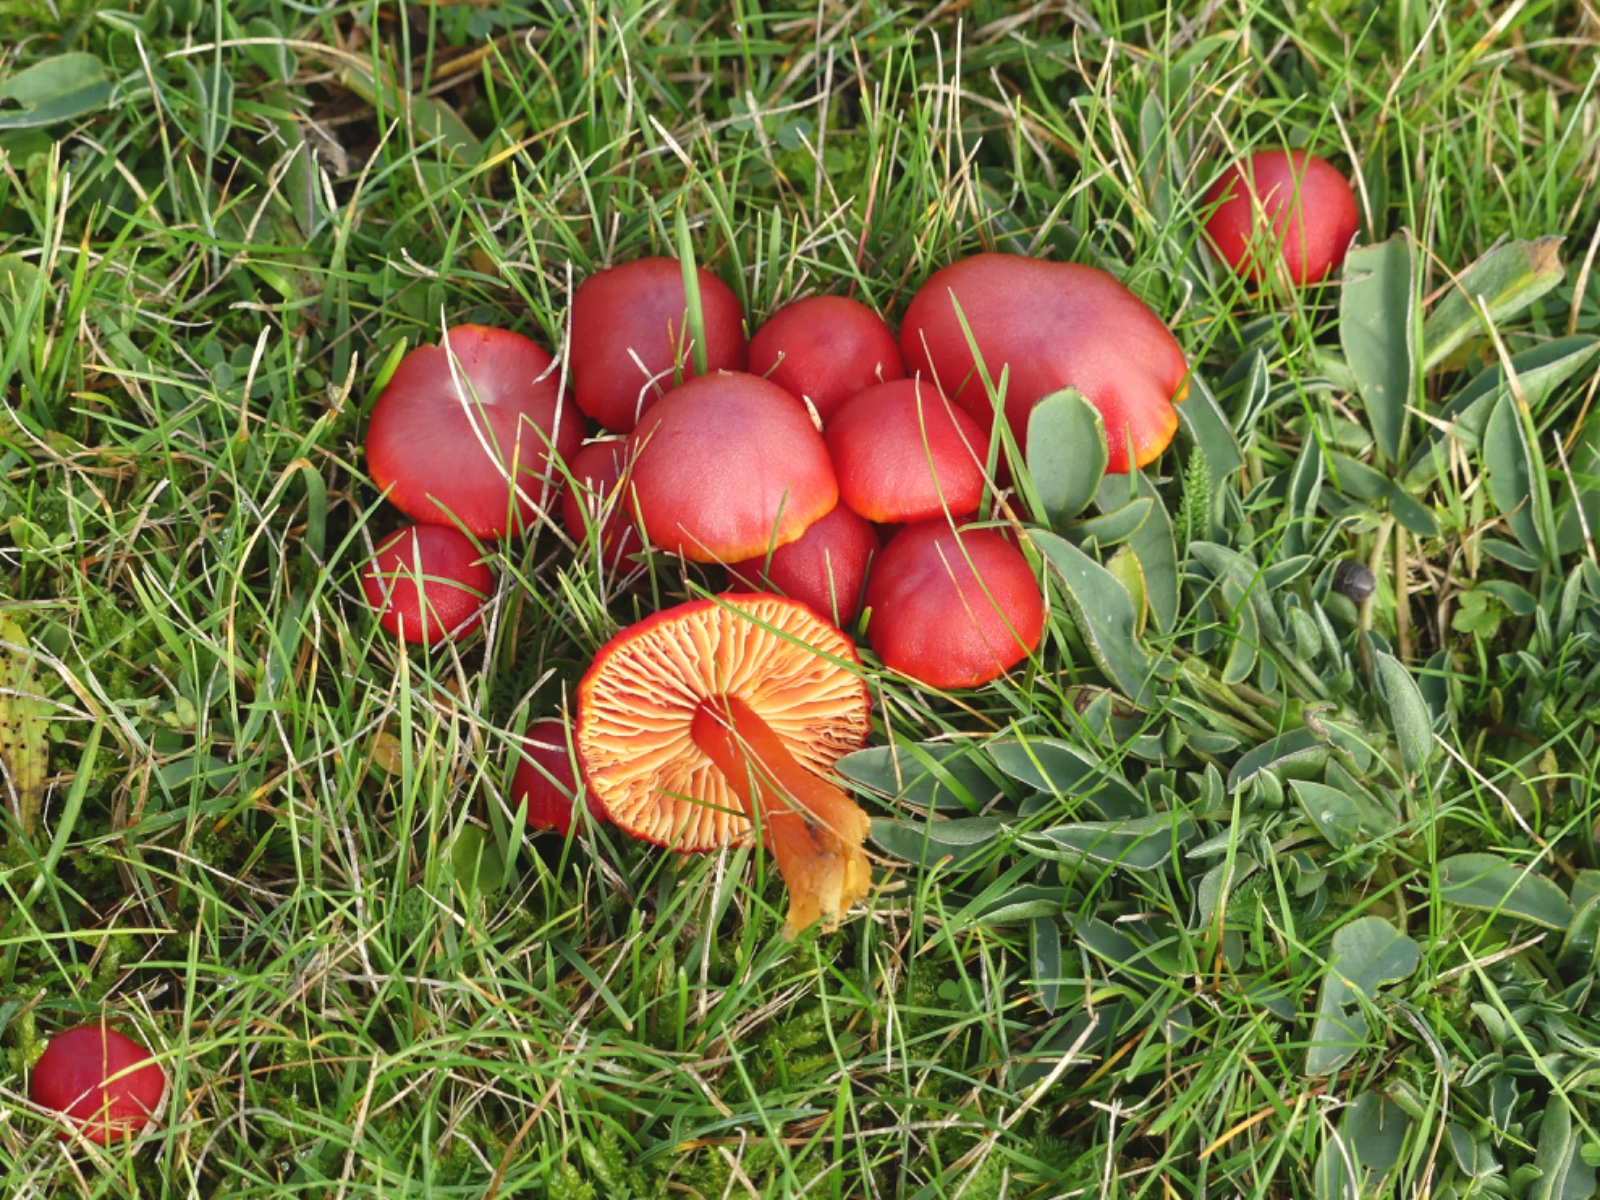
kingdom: Fungi
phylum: Basidiomycota
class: Agaricomycetes
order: Agaricales
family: Hygrophoraceae
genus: Hygrocybe
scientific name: Hygrocybe coccinea
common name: cinnober-vokshat
